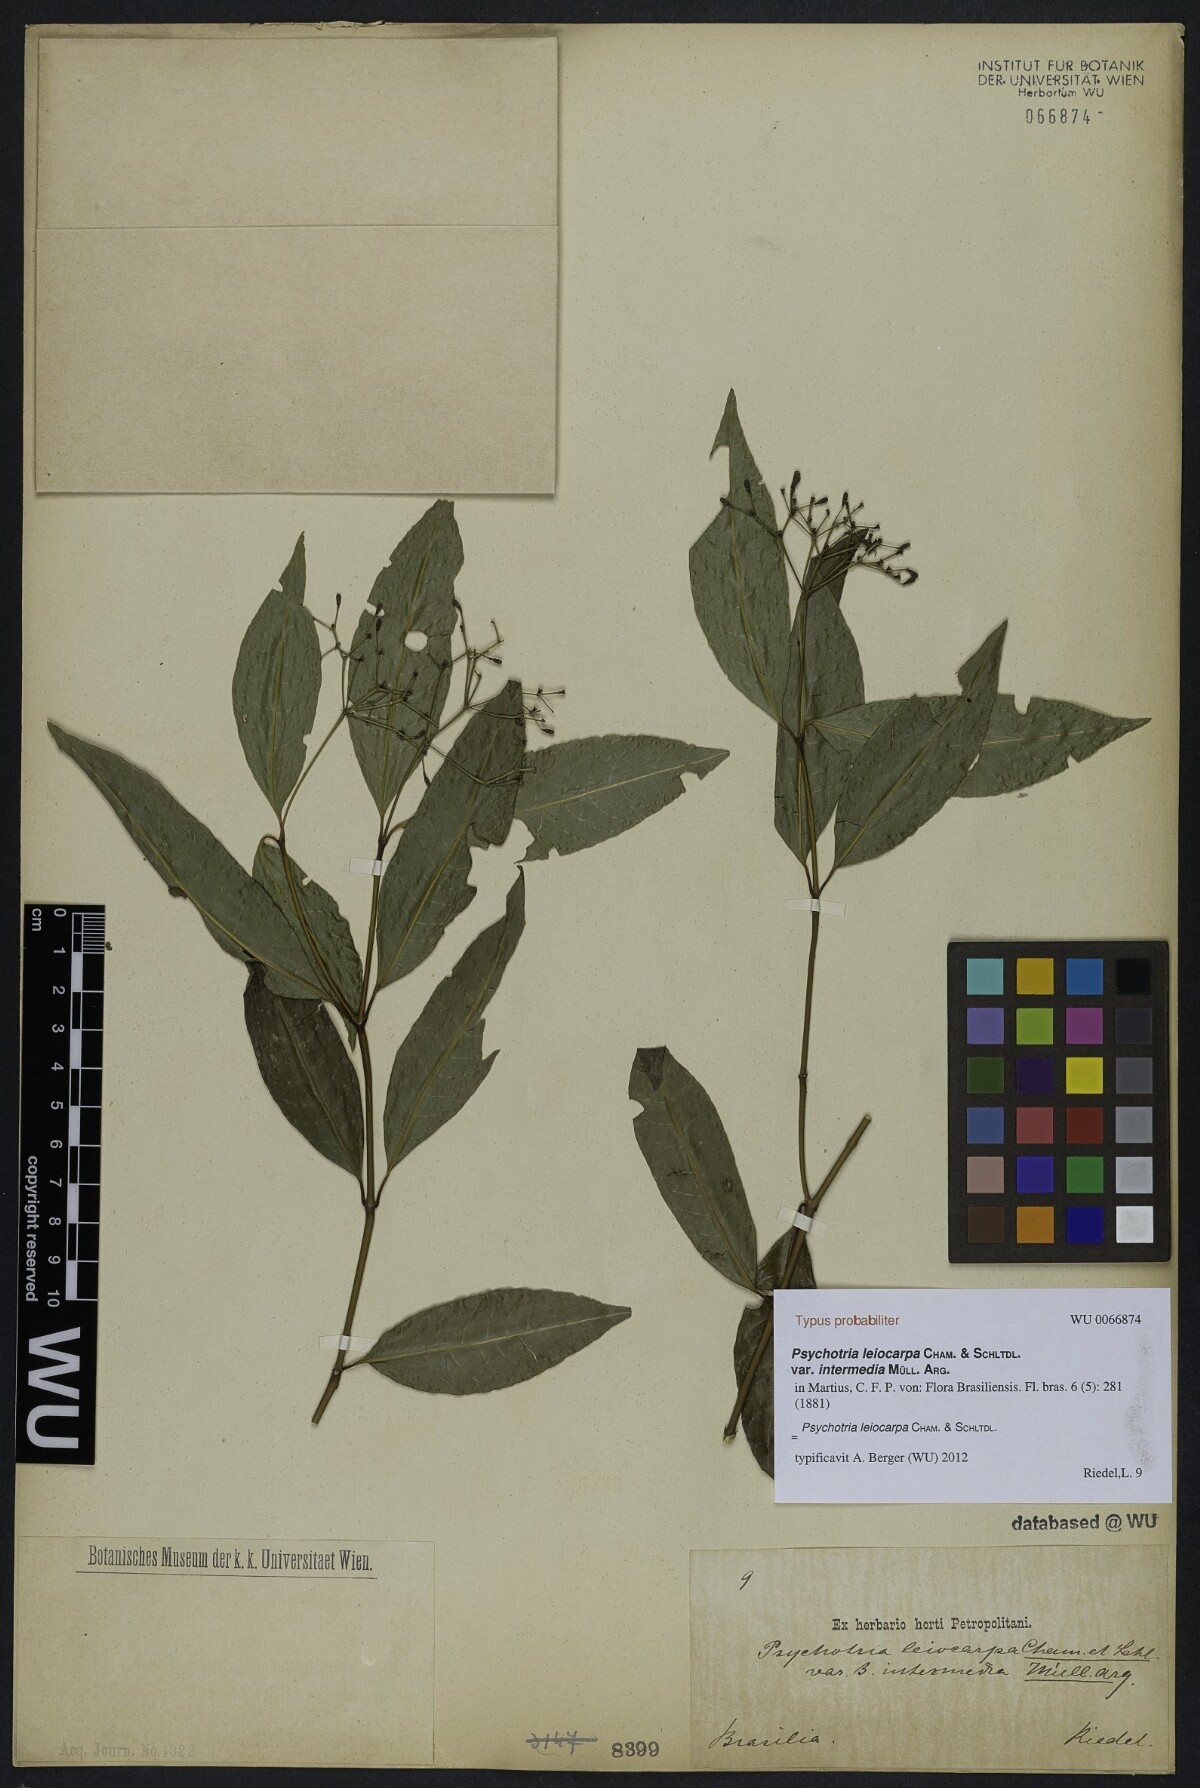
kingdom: Plantae
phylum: Tracheophyta
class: Magnoliopsida
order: Gentianales
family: Rubiaceae
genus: Psychotria
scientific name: Psychotria leiocarpa
